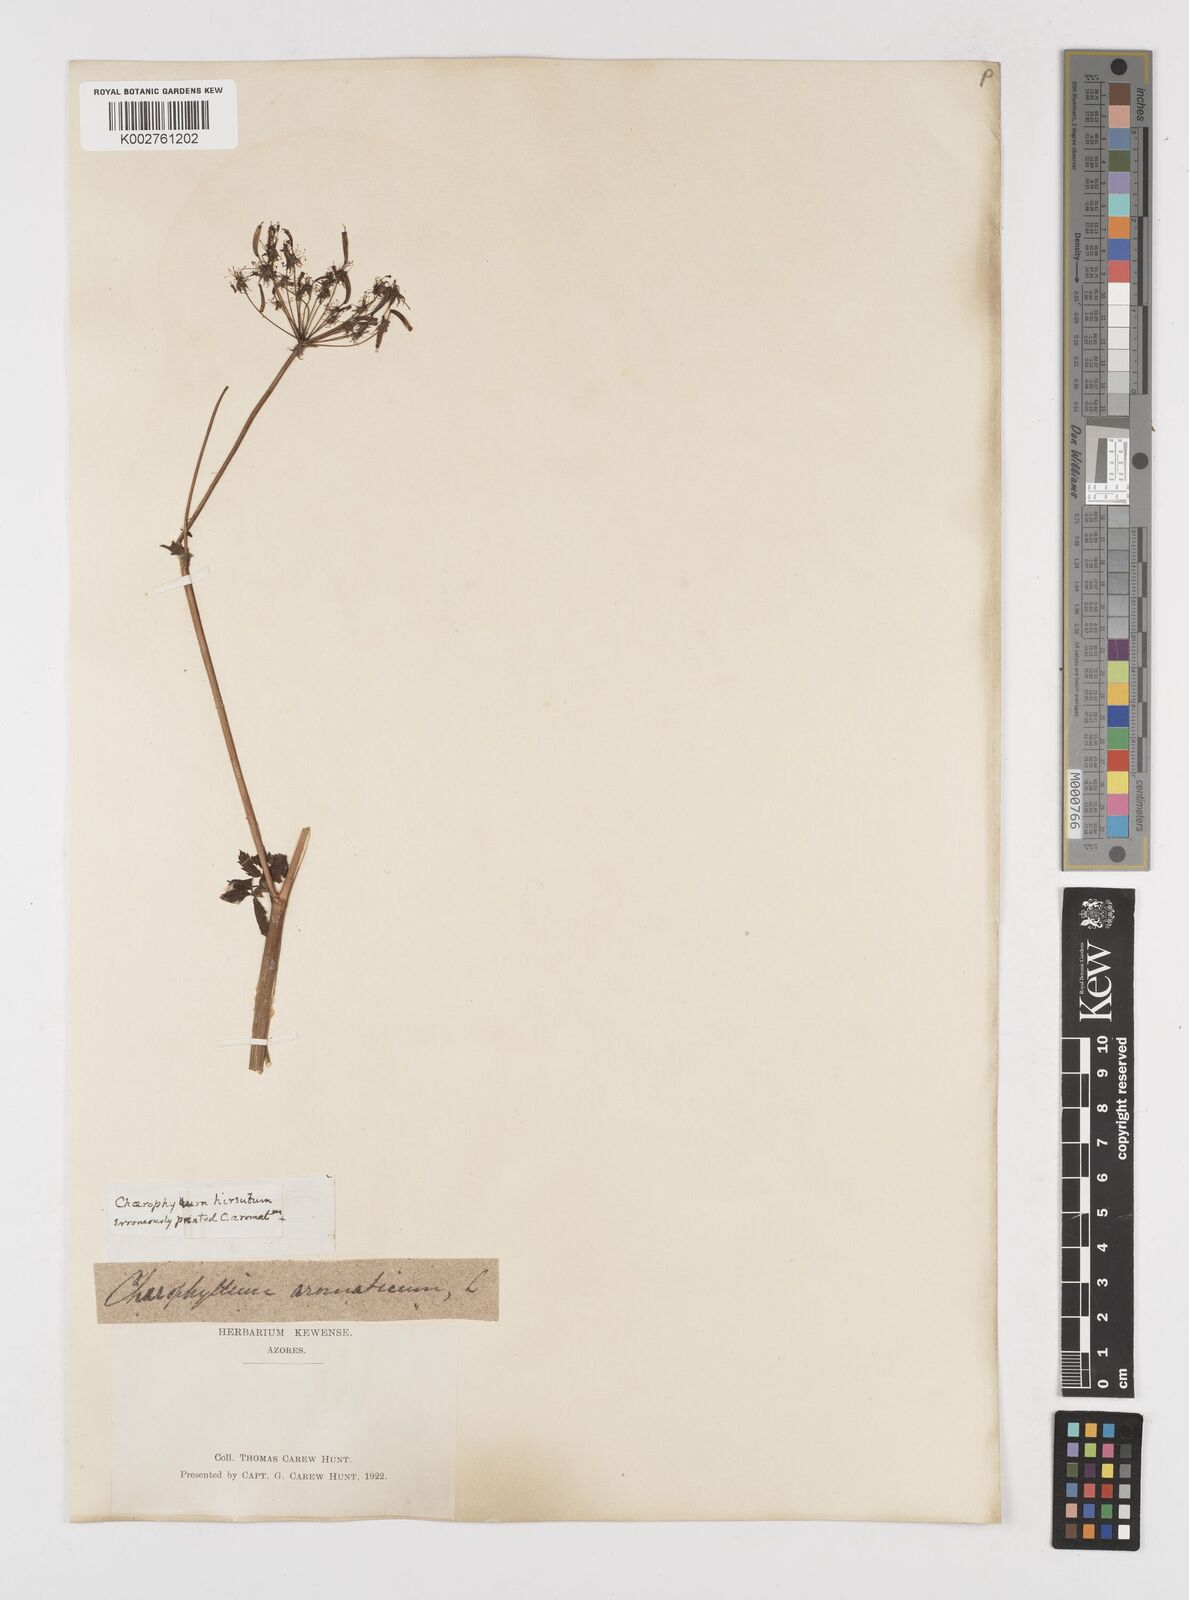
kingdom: Plantae
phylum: Tracheophyta
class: Magnoliopsida
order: Apiales
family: Apiaceae
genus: Chaerophyllum
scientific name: Chaerophyllum hirsutum
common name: Hairy chervil
